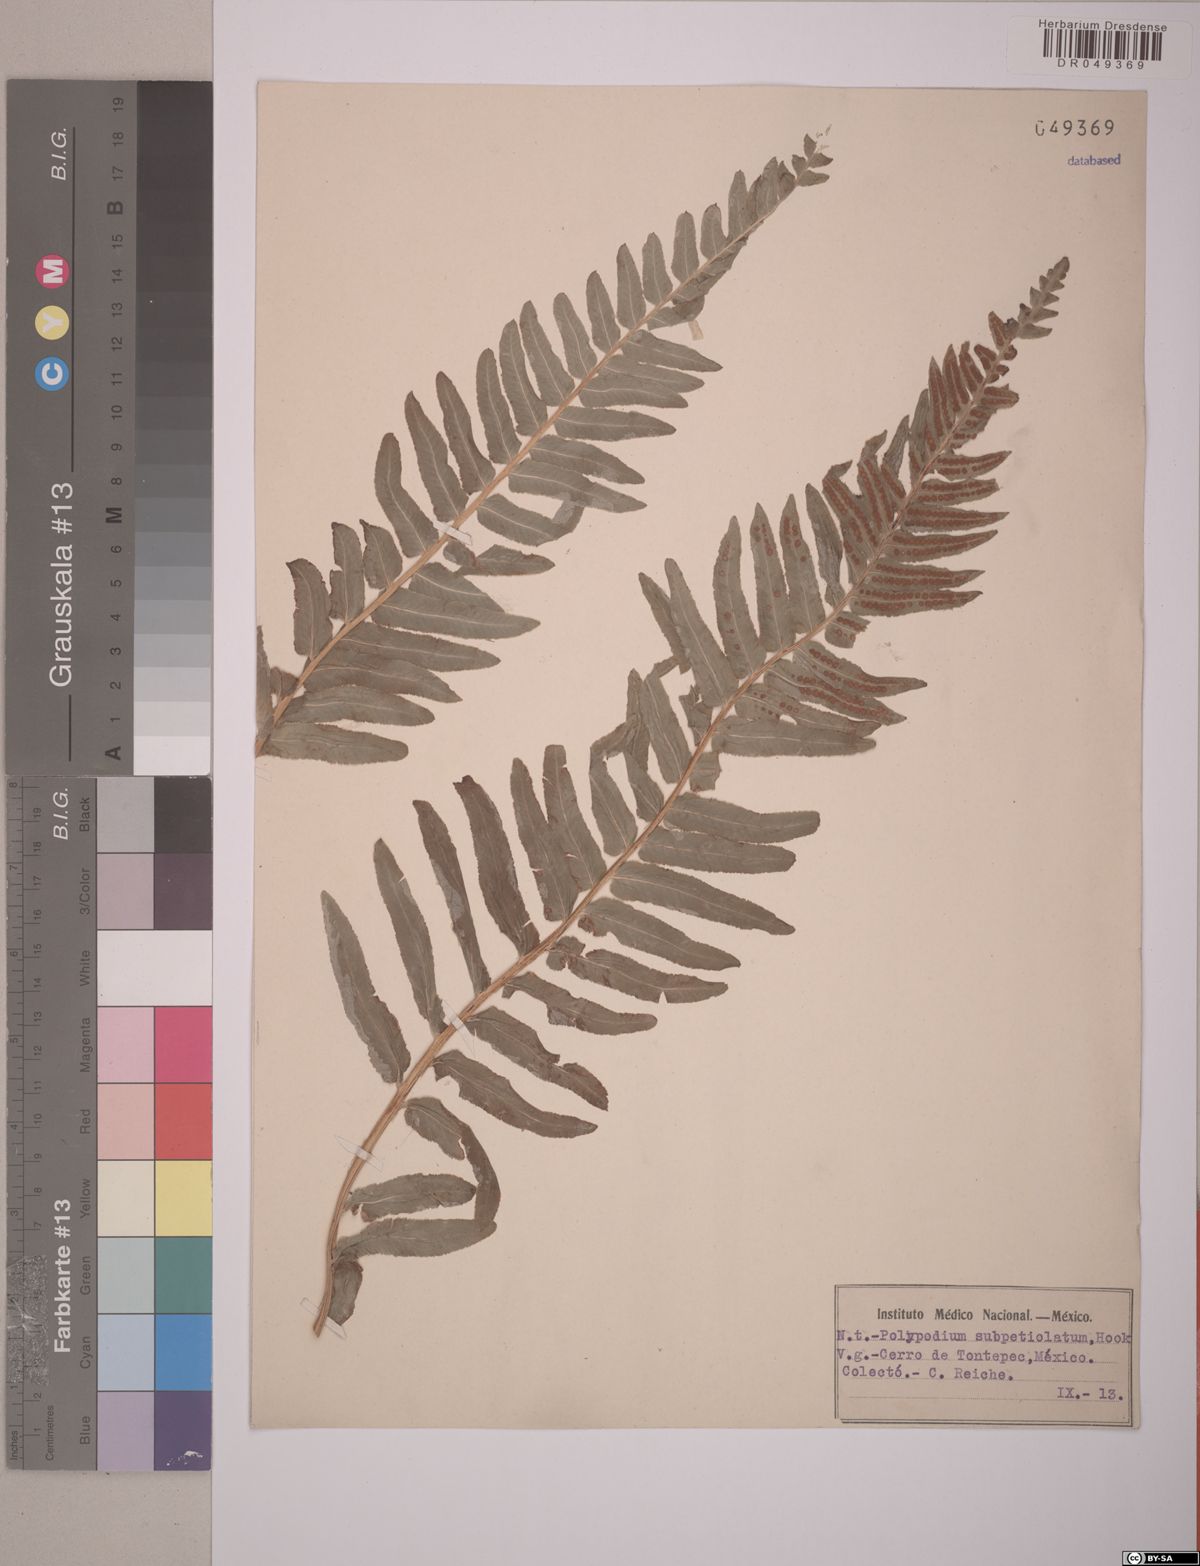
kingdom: Plantae
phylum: Tracheophyta
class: Polypodiopsida
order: Polypodiales
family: Polypodiaceae
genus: Polypodium
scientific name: Polypodium subpetiolatum
